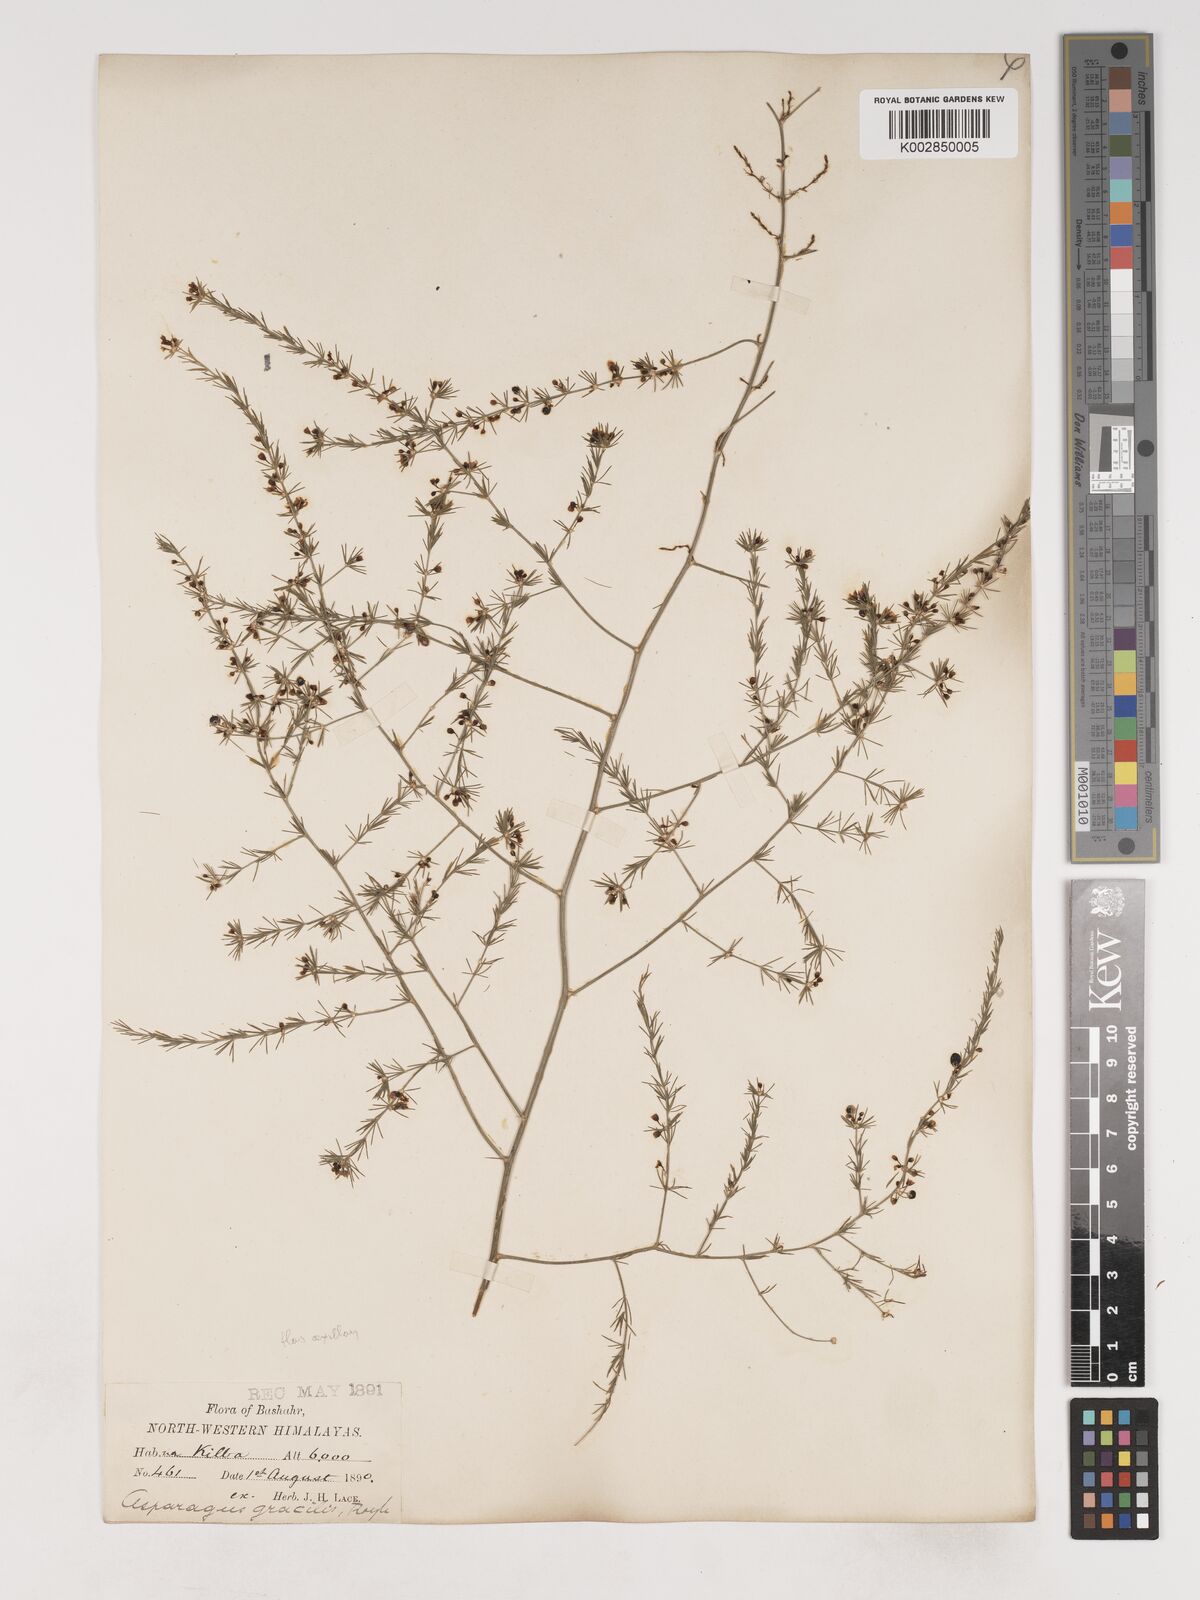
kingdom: Plantae
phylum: Tracheophyta
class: Liliopsida
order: Asparagales
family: Asparagaceae
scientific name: Asparagaceae
